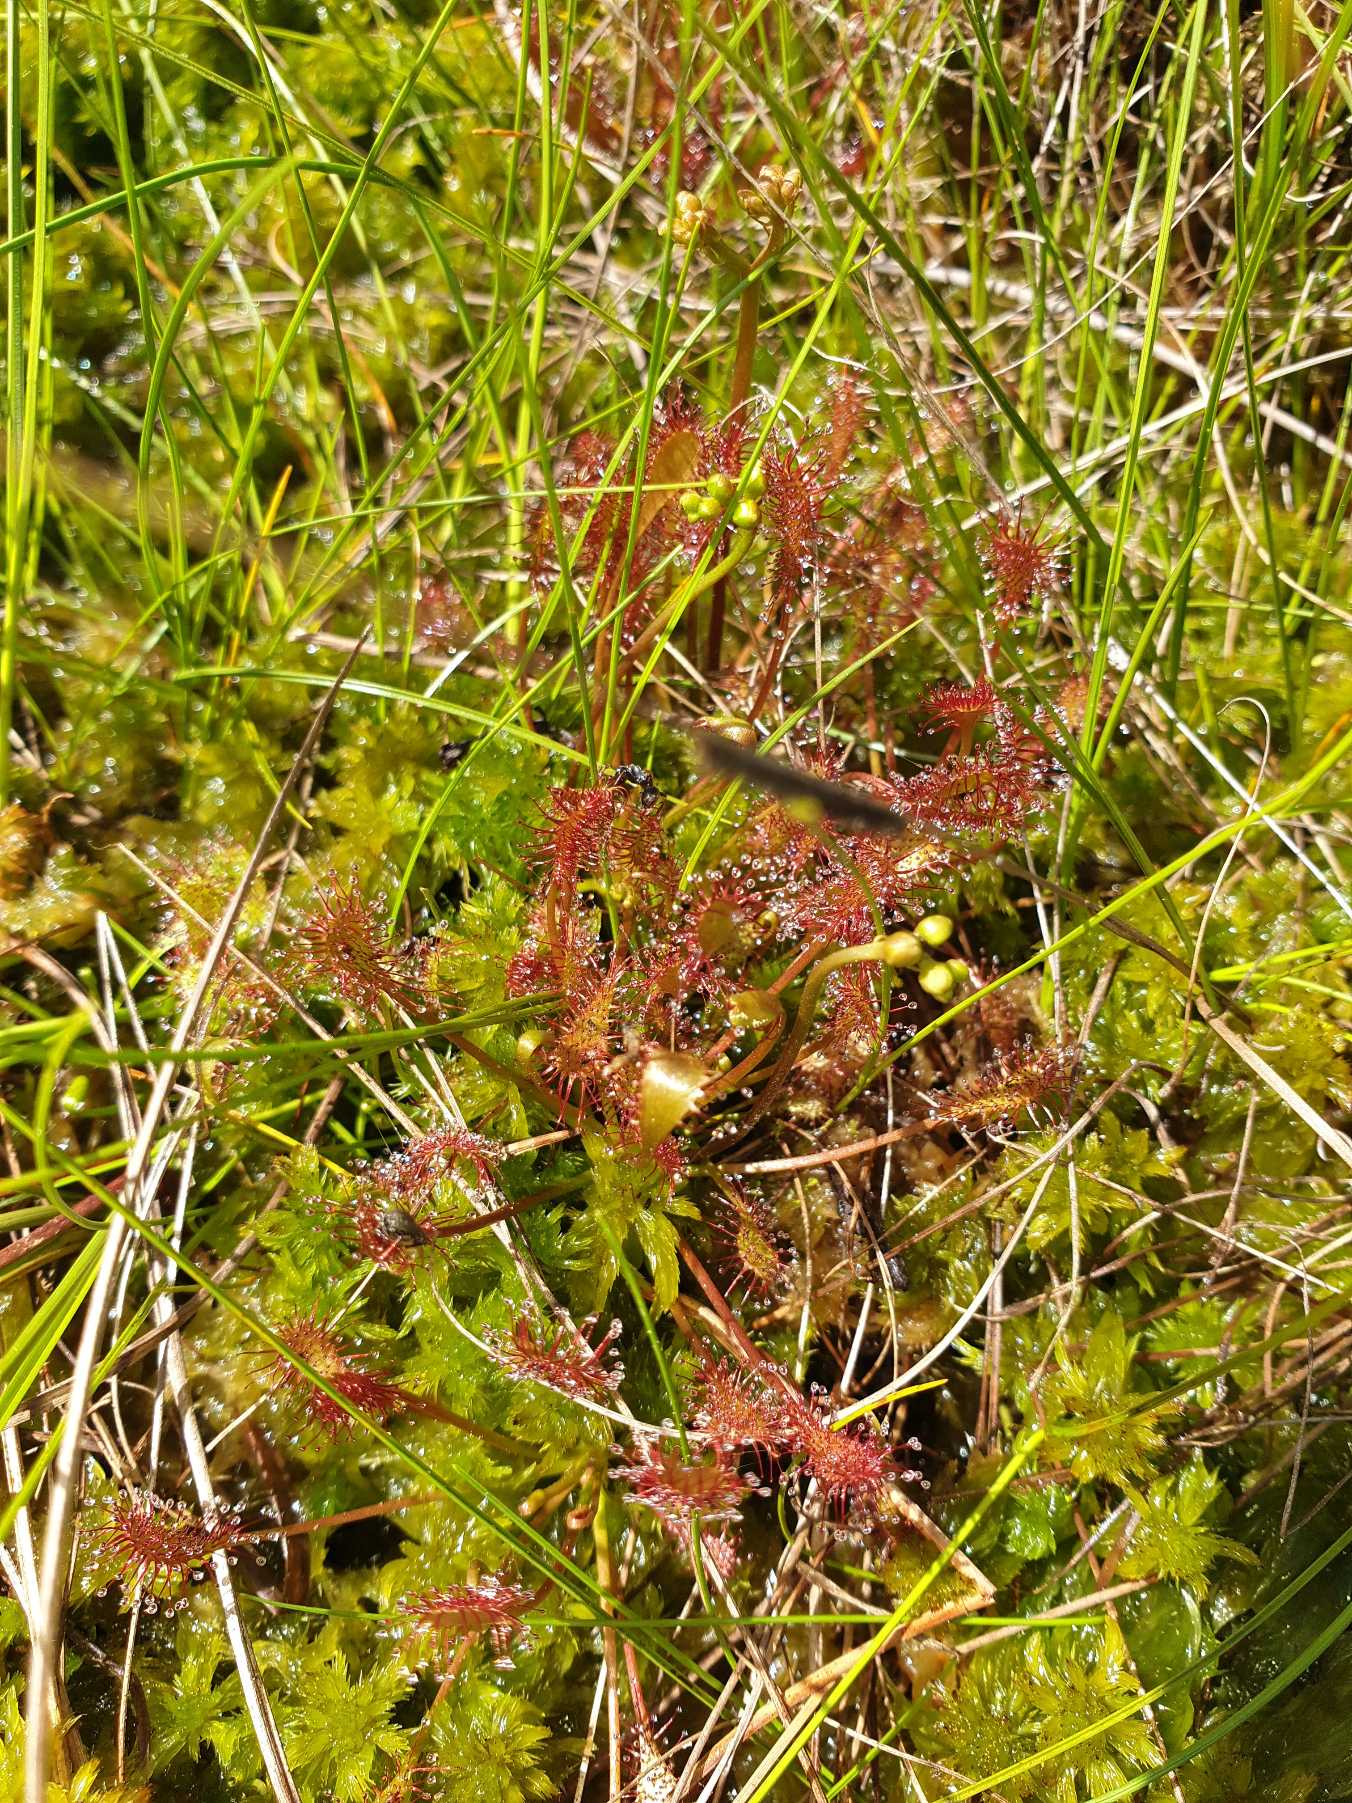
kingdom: Plantae
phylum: Tracheophyta
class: Magnoliopsida
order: Caryophyllales
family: Droseraceae
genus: Drosera
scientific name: Drosera intermedia
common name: Liden soldug
